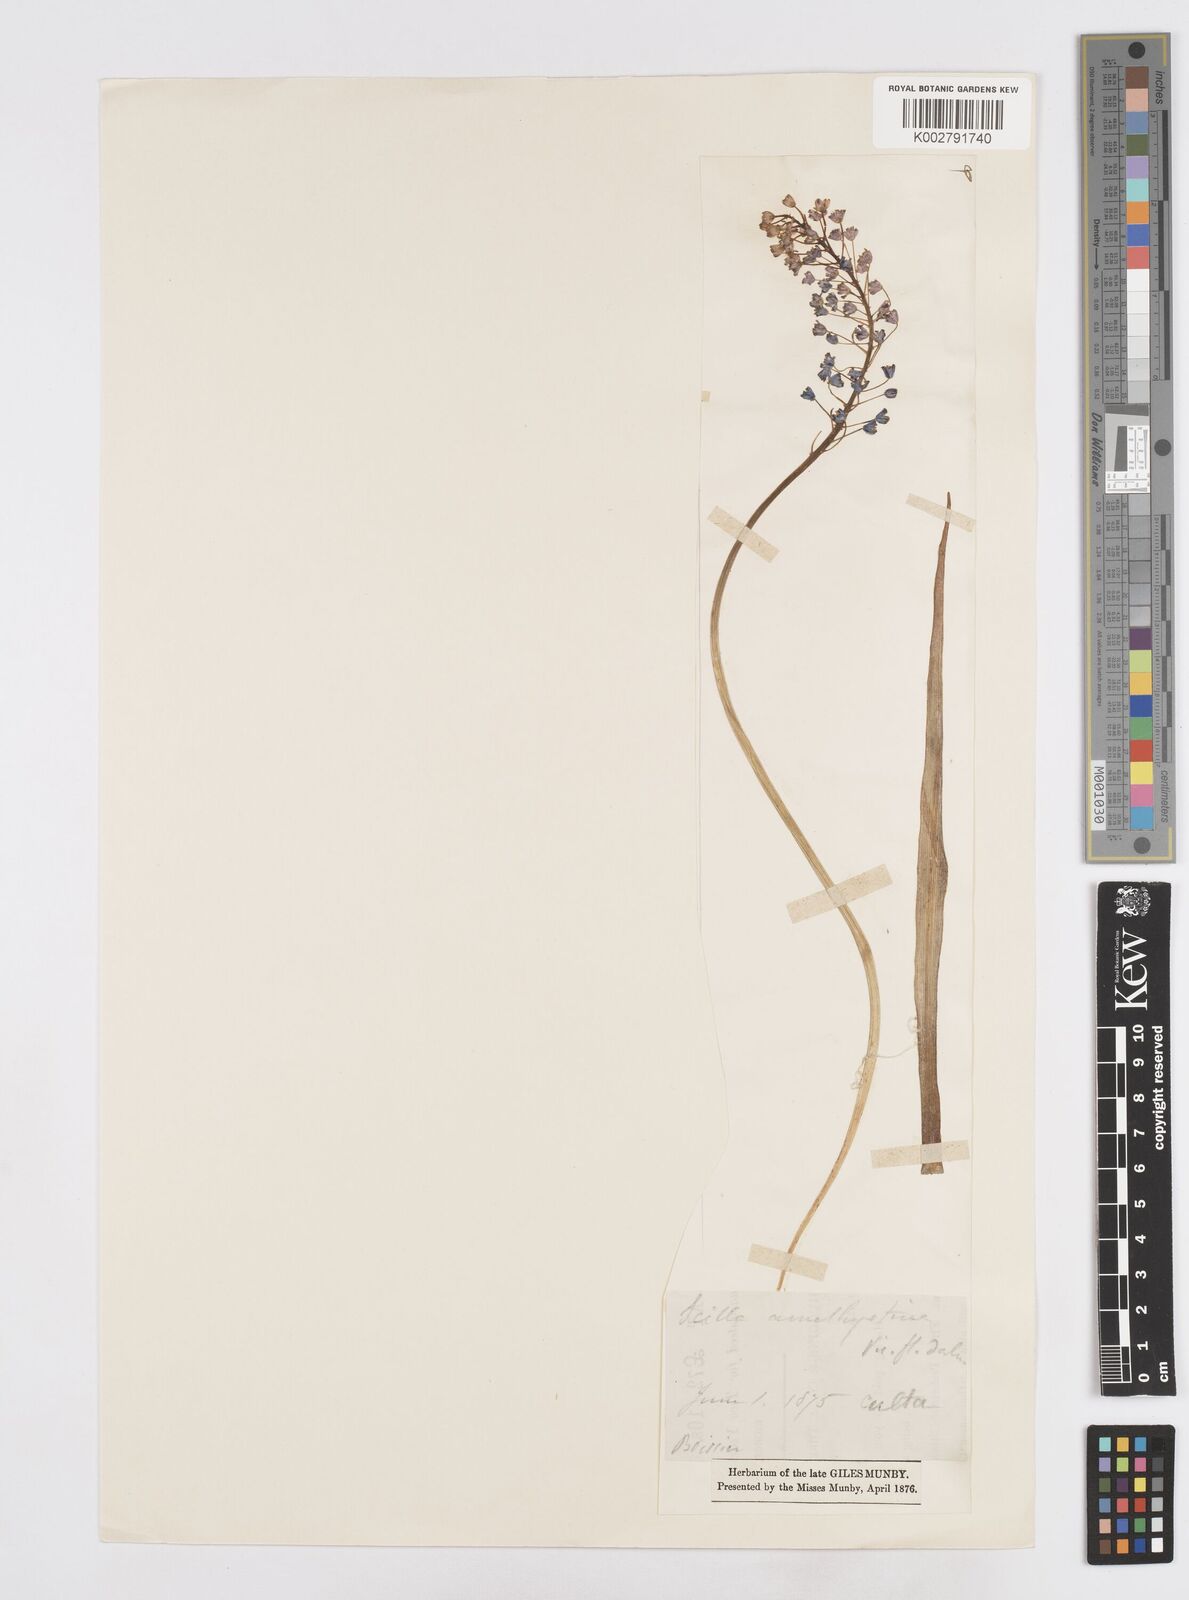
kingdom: Plantae
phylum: Tracheophyta
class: Liliopsida
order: Asparagales
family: Asparagaceae
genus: Scilla
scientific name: Scilla
